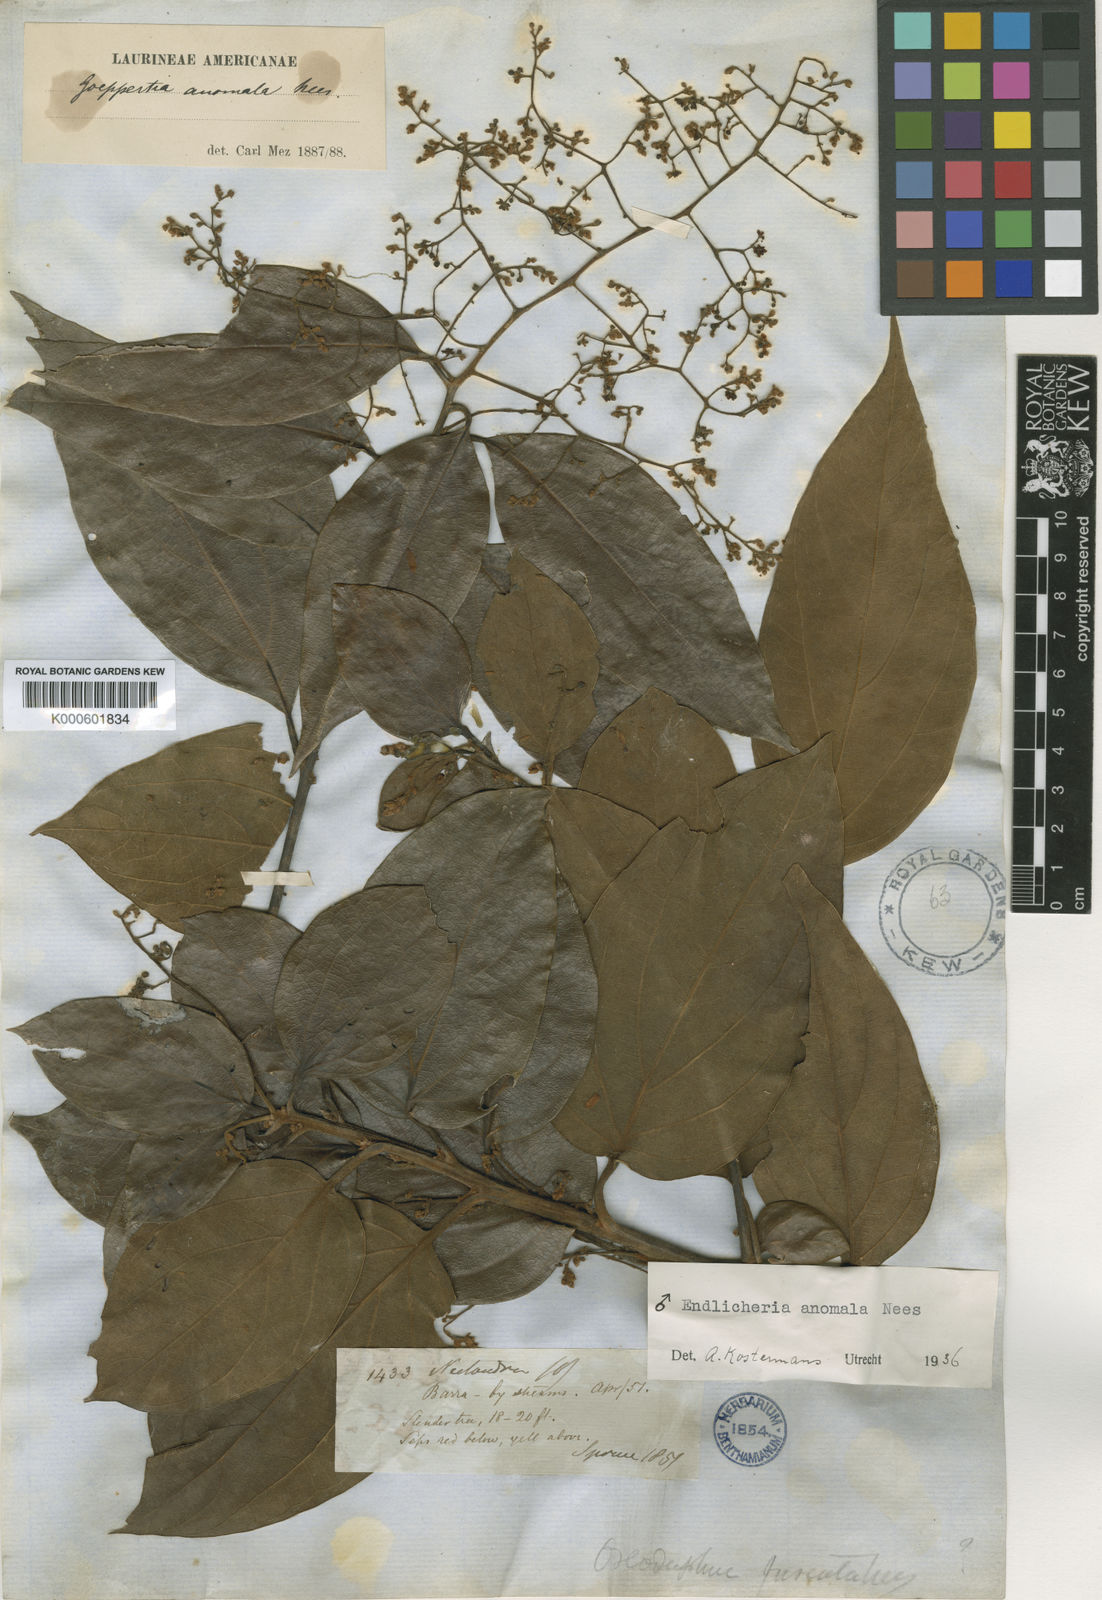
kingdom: Plantae
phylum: Tracheophyta
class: Magnoliopsida
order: Laurales
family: Lauraceae
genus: Endlicheria
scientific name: Endlicheria anomala
